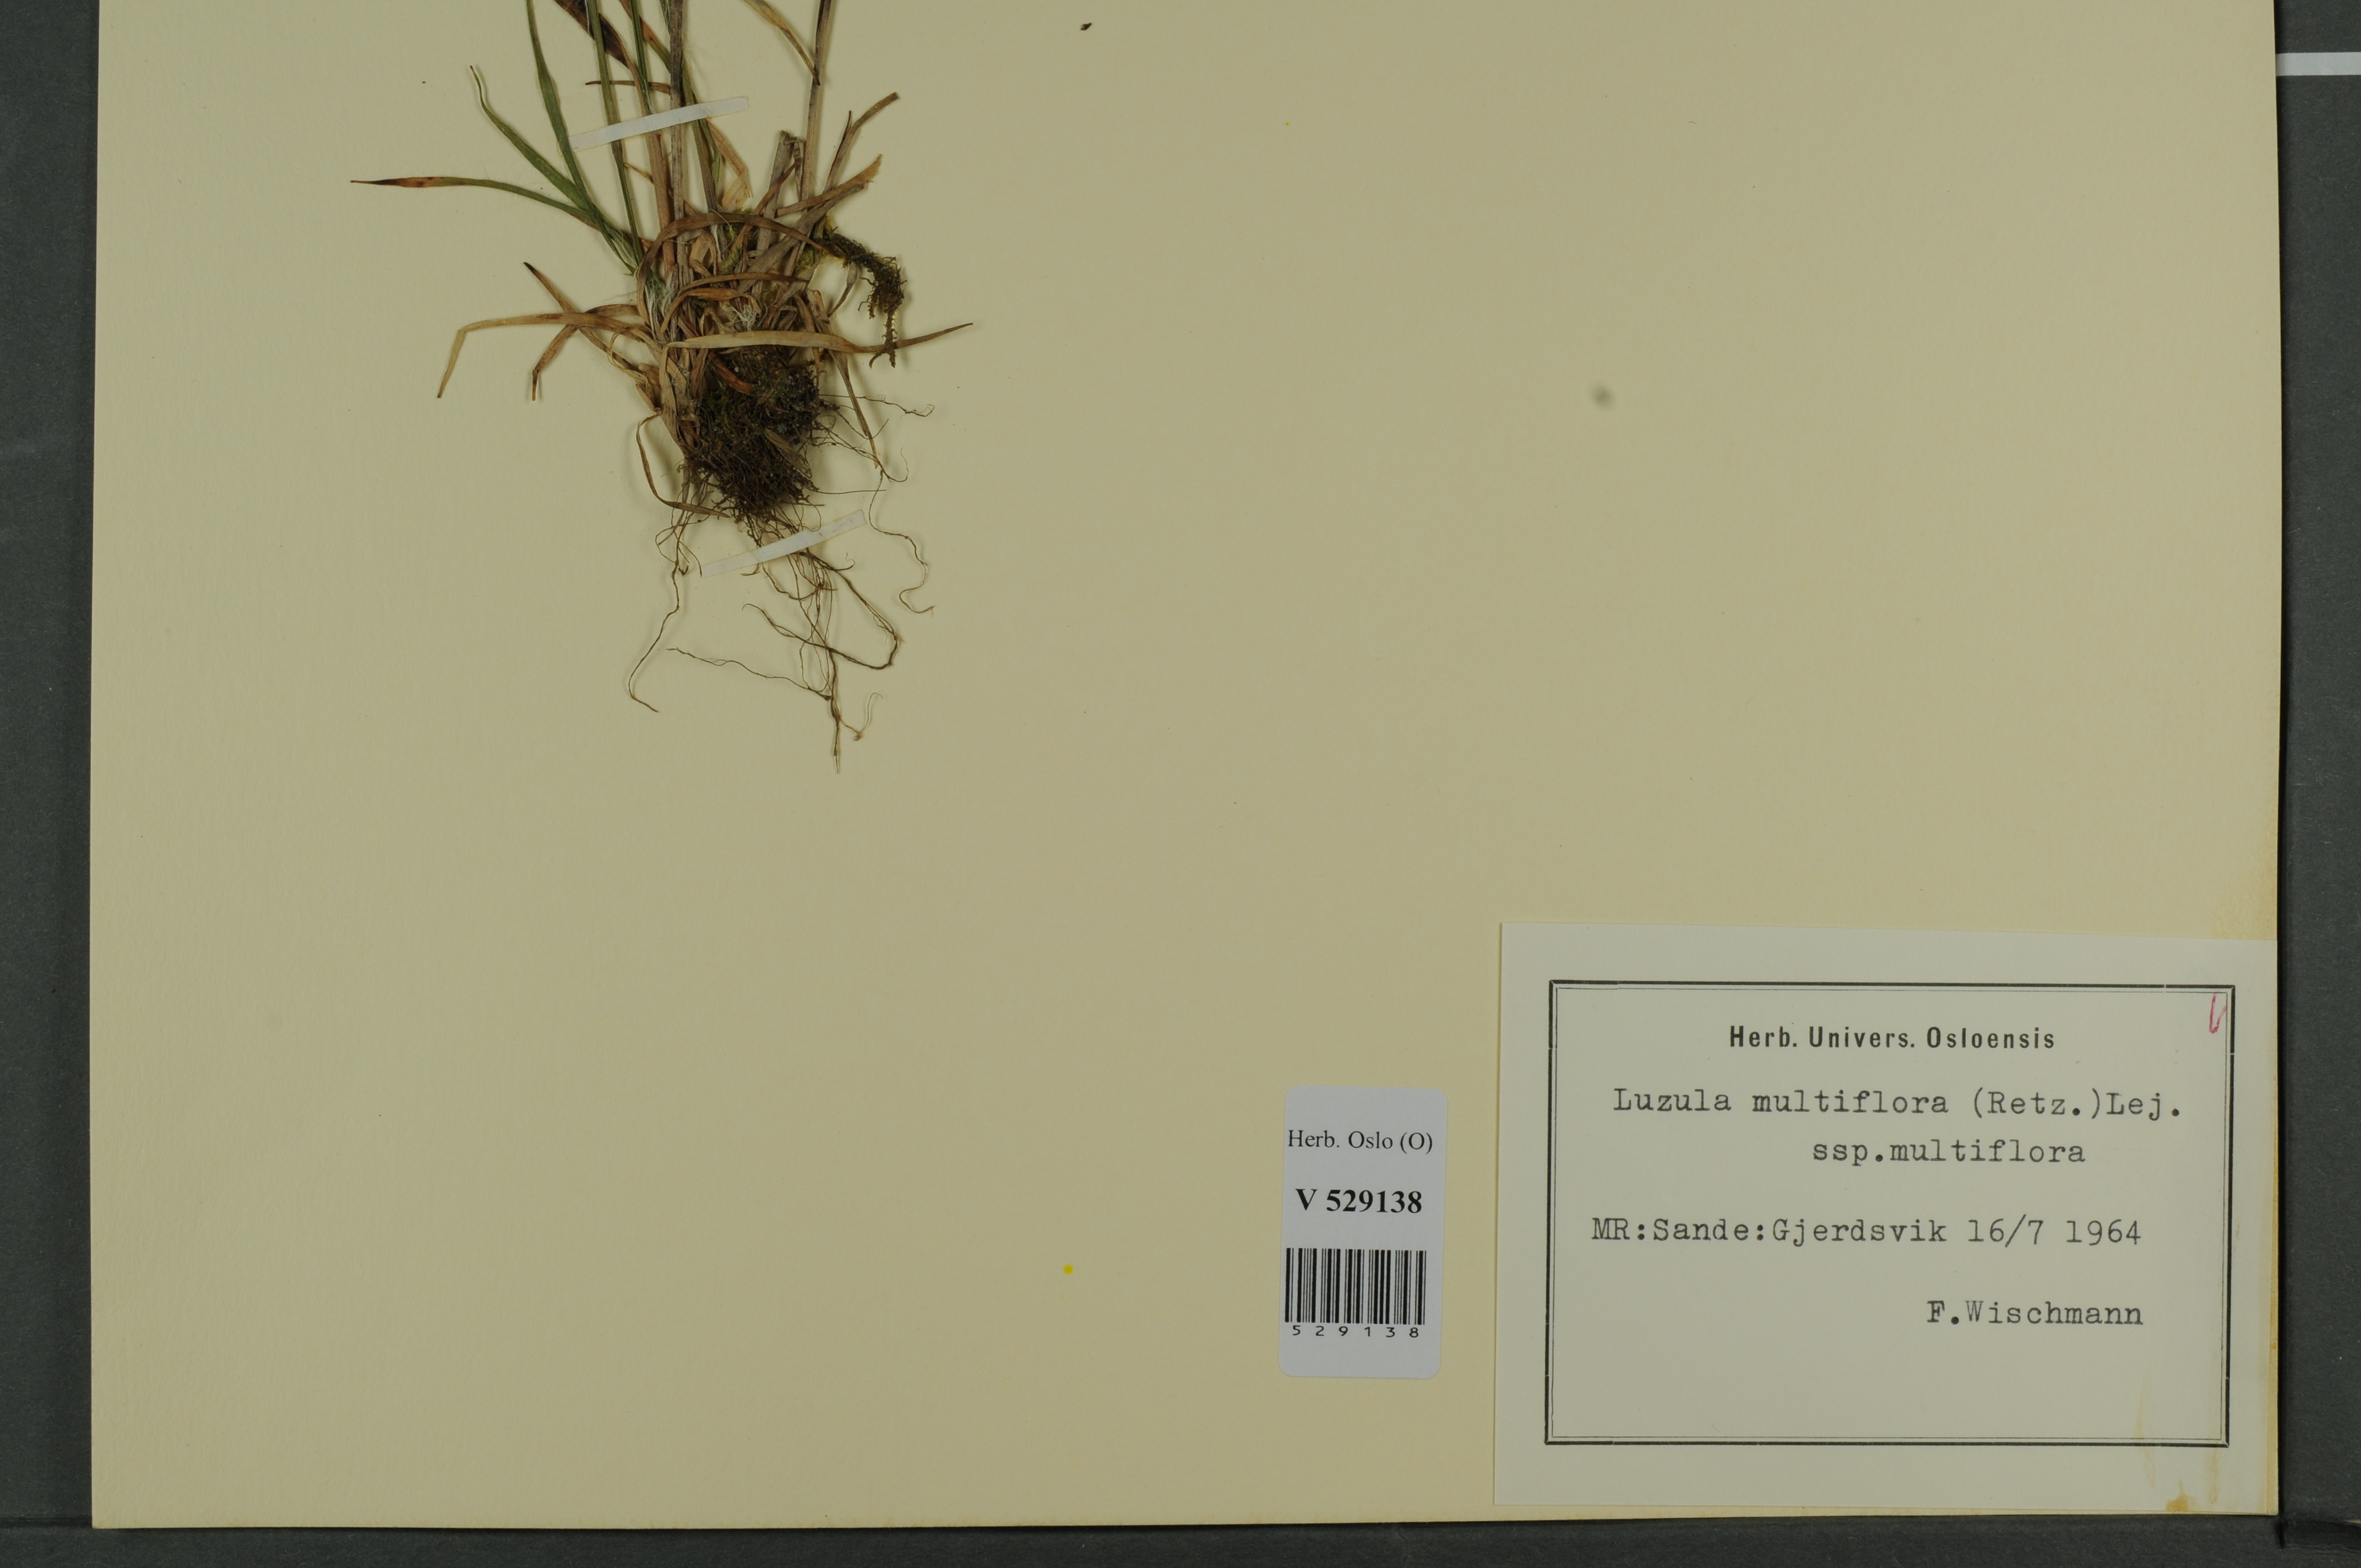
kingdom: Plantae
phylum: Tracheophyta
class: Liliopsida
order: Poales
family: Juncaceae
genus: Luzula
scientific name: Luzula multiflora
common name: Heath wood-rush
